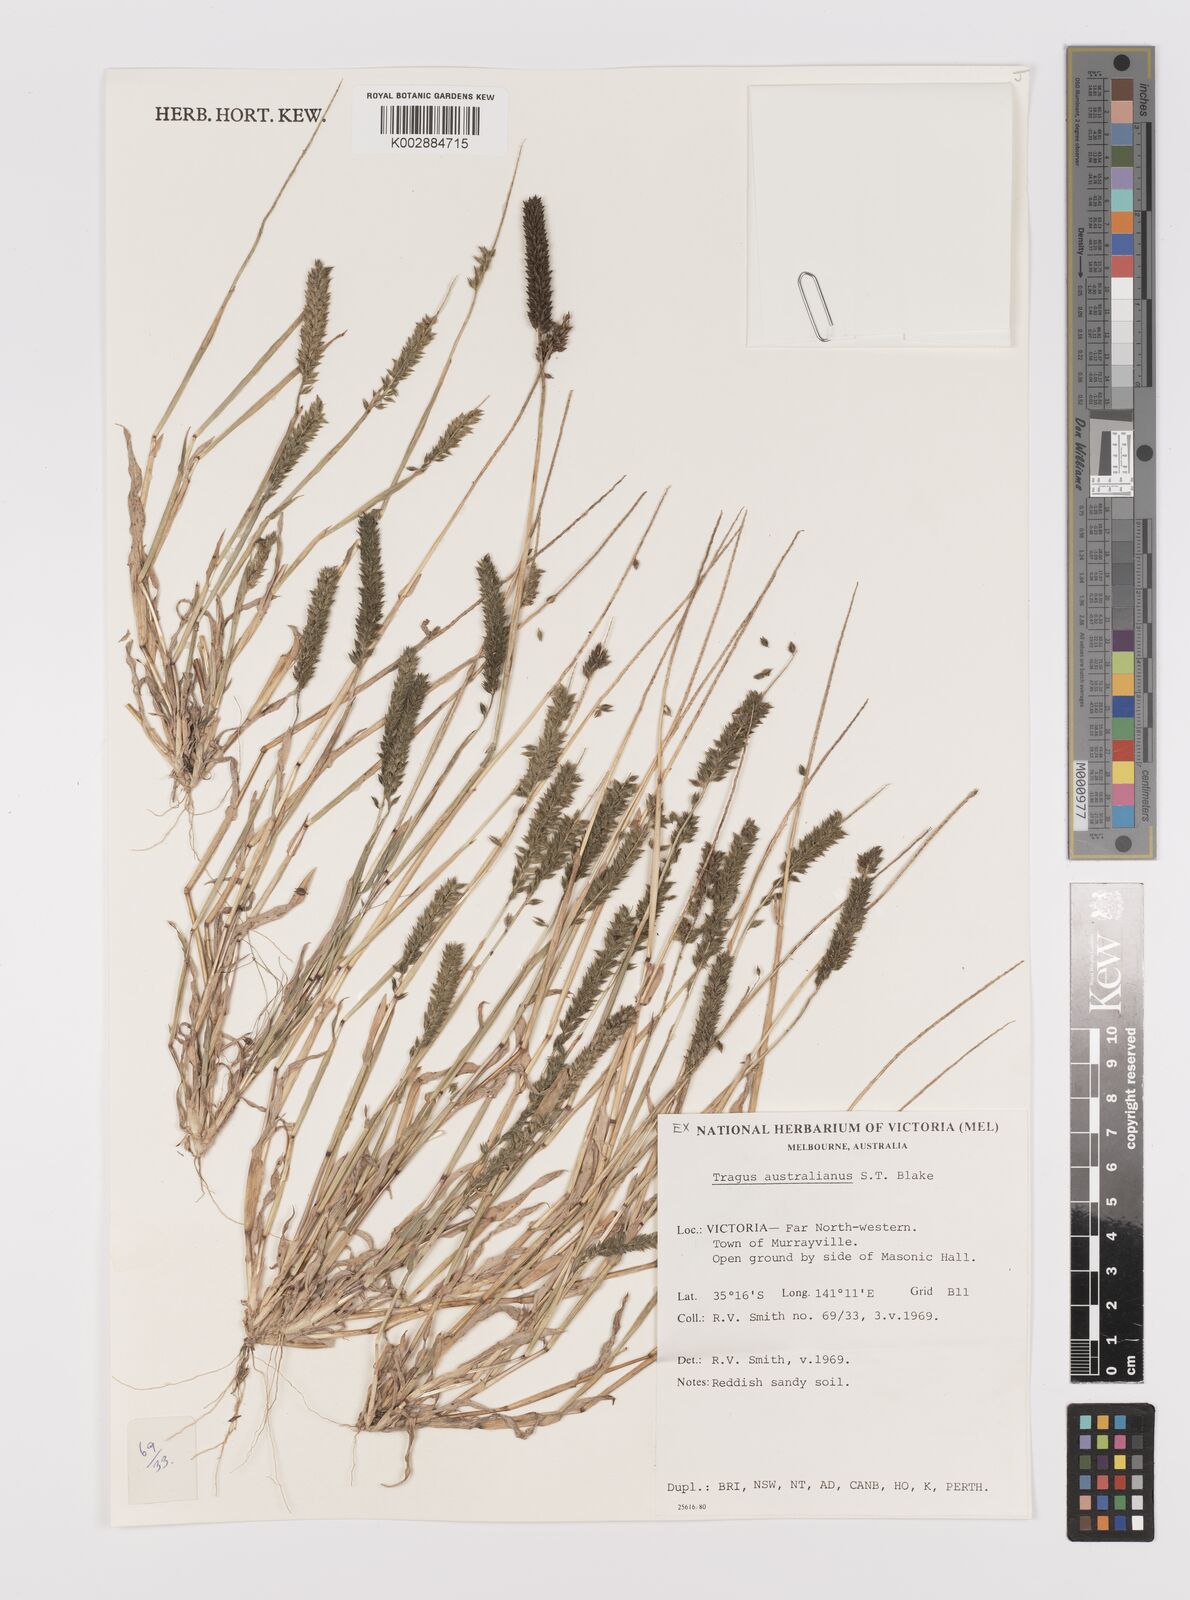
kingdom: Plantae
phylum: Tracheophyta
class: Liliopsida
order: Poales
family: Poaceae
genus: Tragus
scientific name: Tragus australianus
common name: Australian bur-grass
